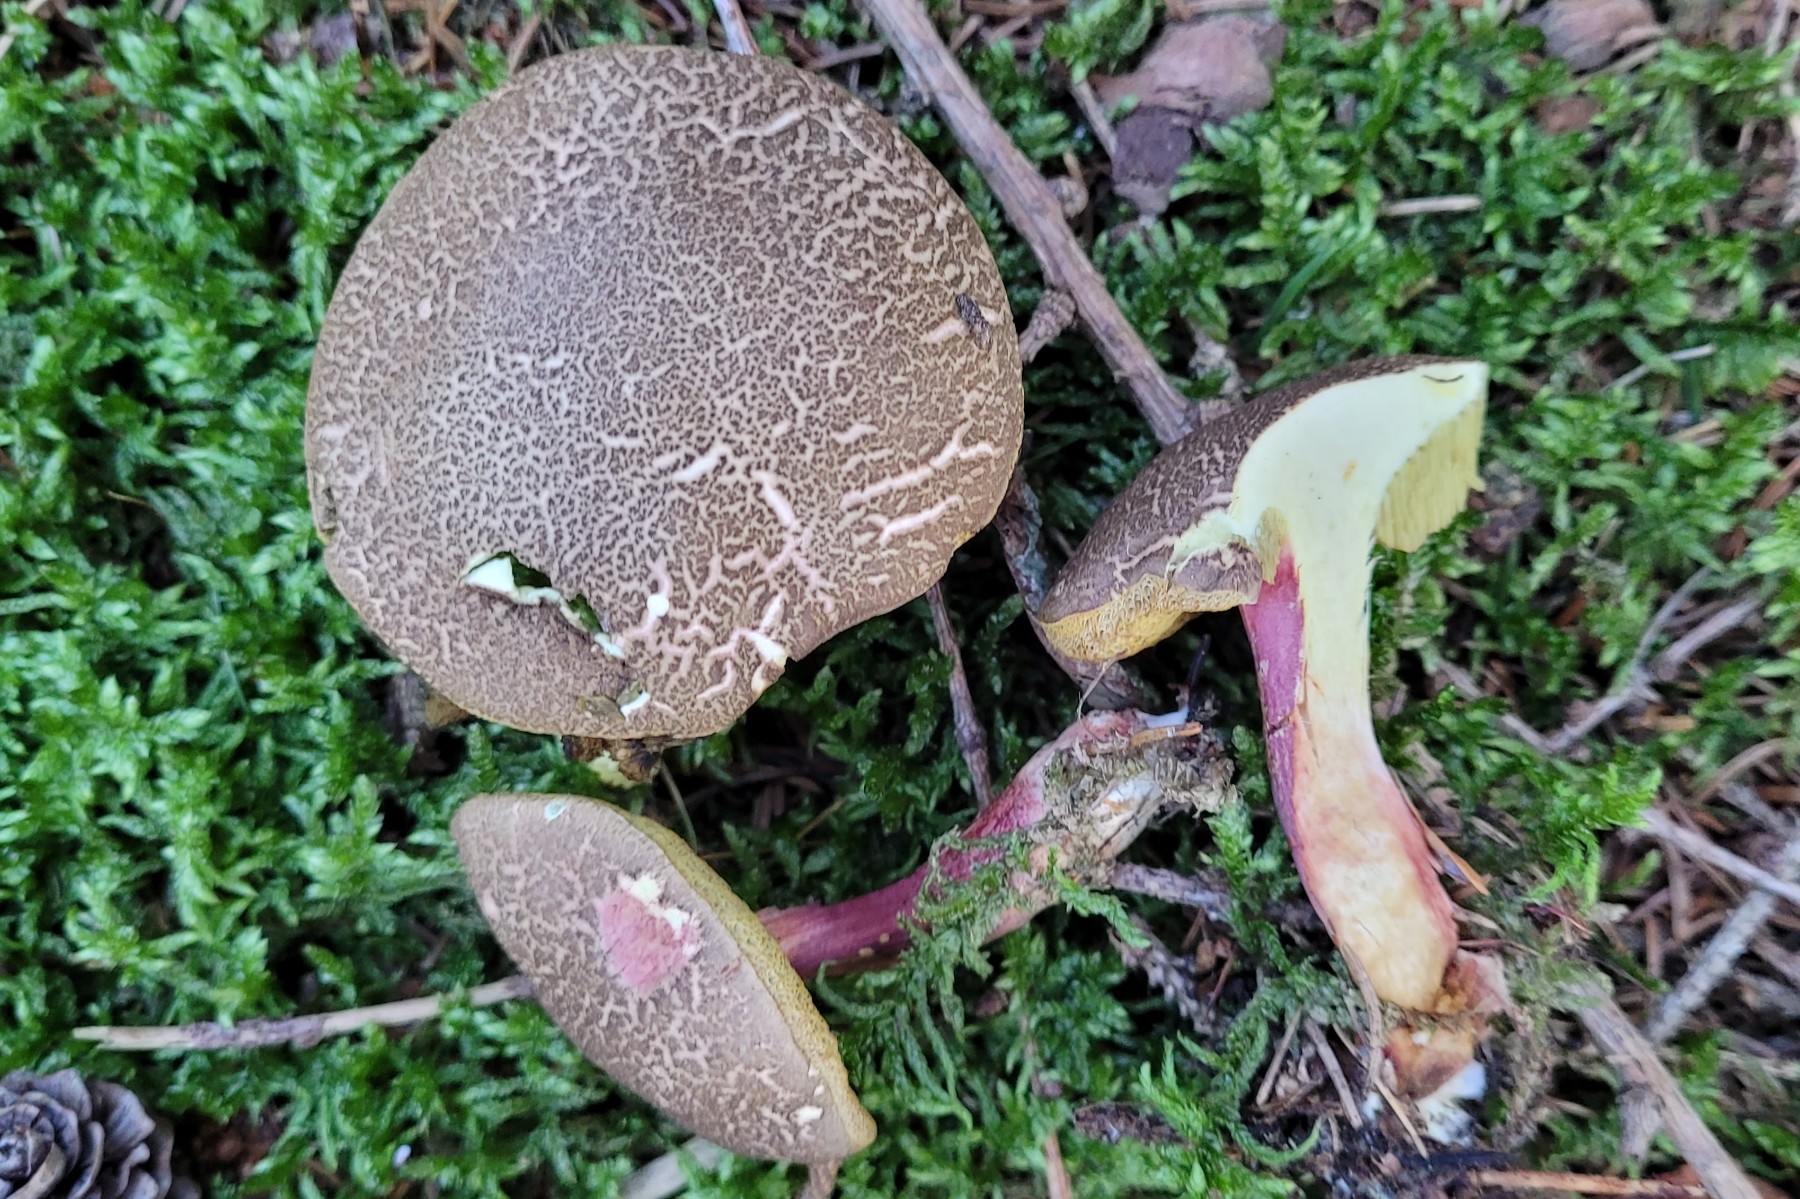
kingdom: Fungi
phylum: Basidiomycota
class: Agaricomycetes
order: Boletales
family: Boletaceae
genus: Xerocomellus
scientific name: Xerocomellus chrysenteron
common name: rødsprukken rørhat
